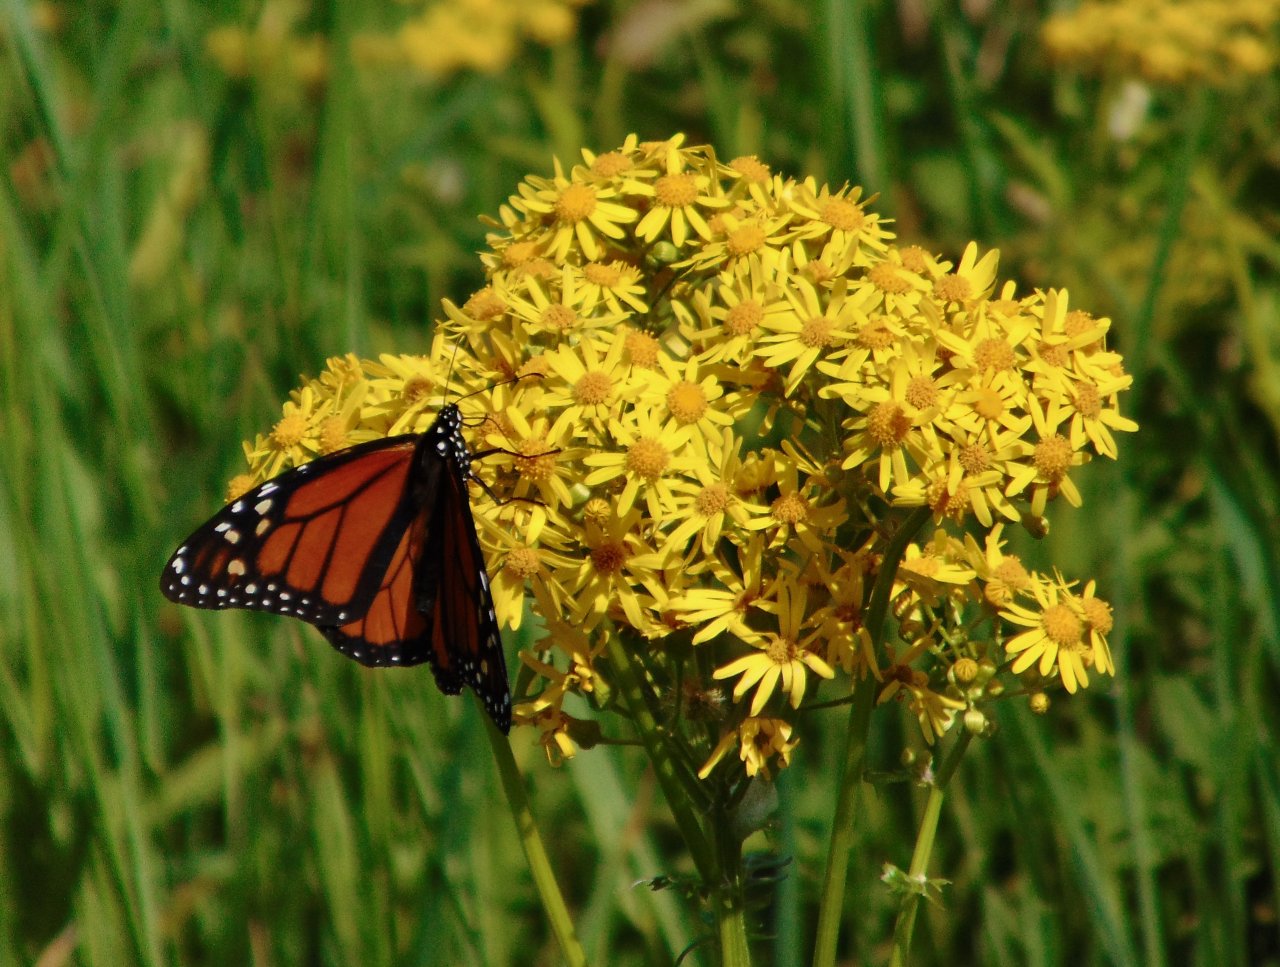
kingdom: Animalia
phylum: Arthropoda
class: Insecta
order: Lepidoptera
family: Nymphalidae
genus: Danaus
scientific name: Danaus plexippus
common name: Monarch
